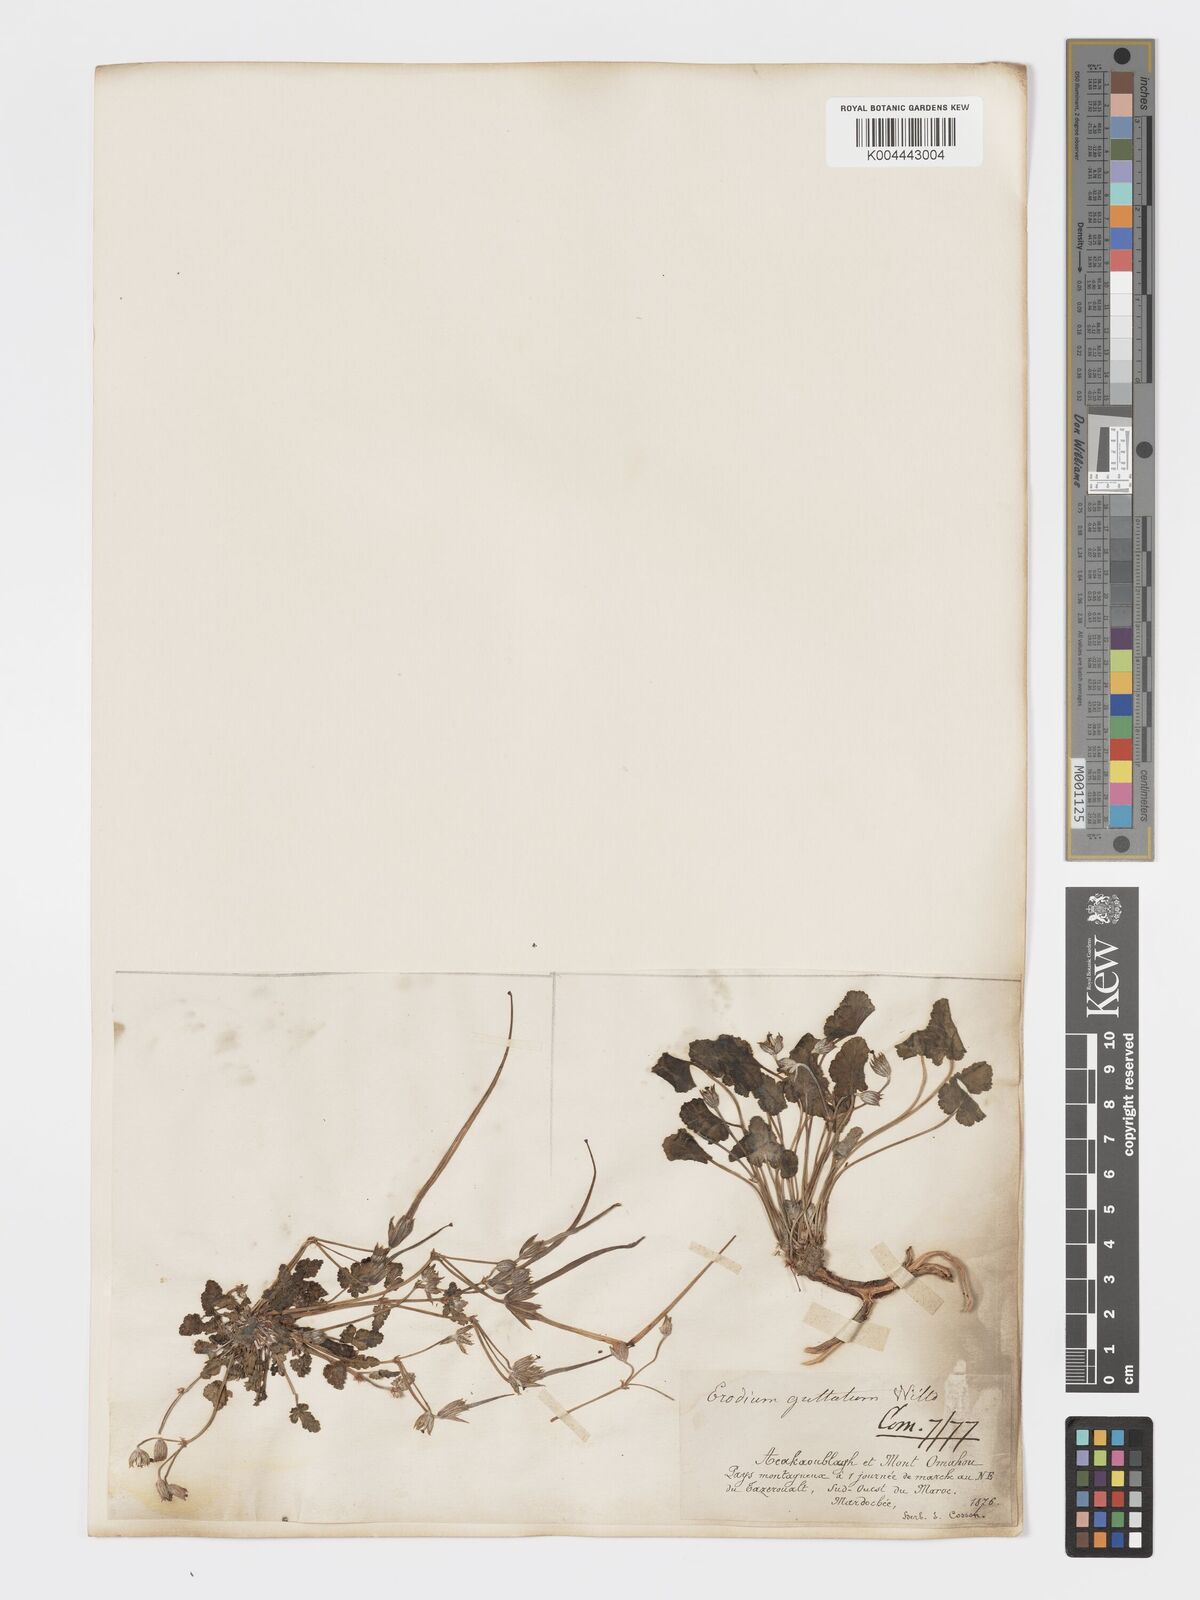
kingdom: Plantae
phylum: Tracheophyta
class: Magnoliopsida
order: Geraniales
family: Geraniaceae
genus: Erodium
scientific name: Erodium guttatum
